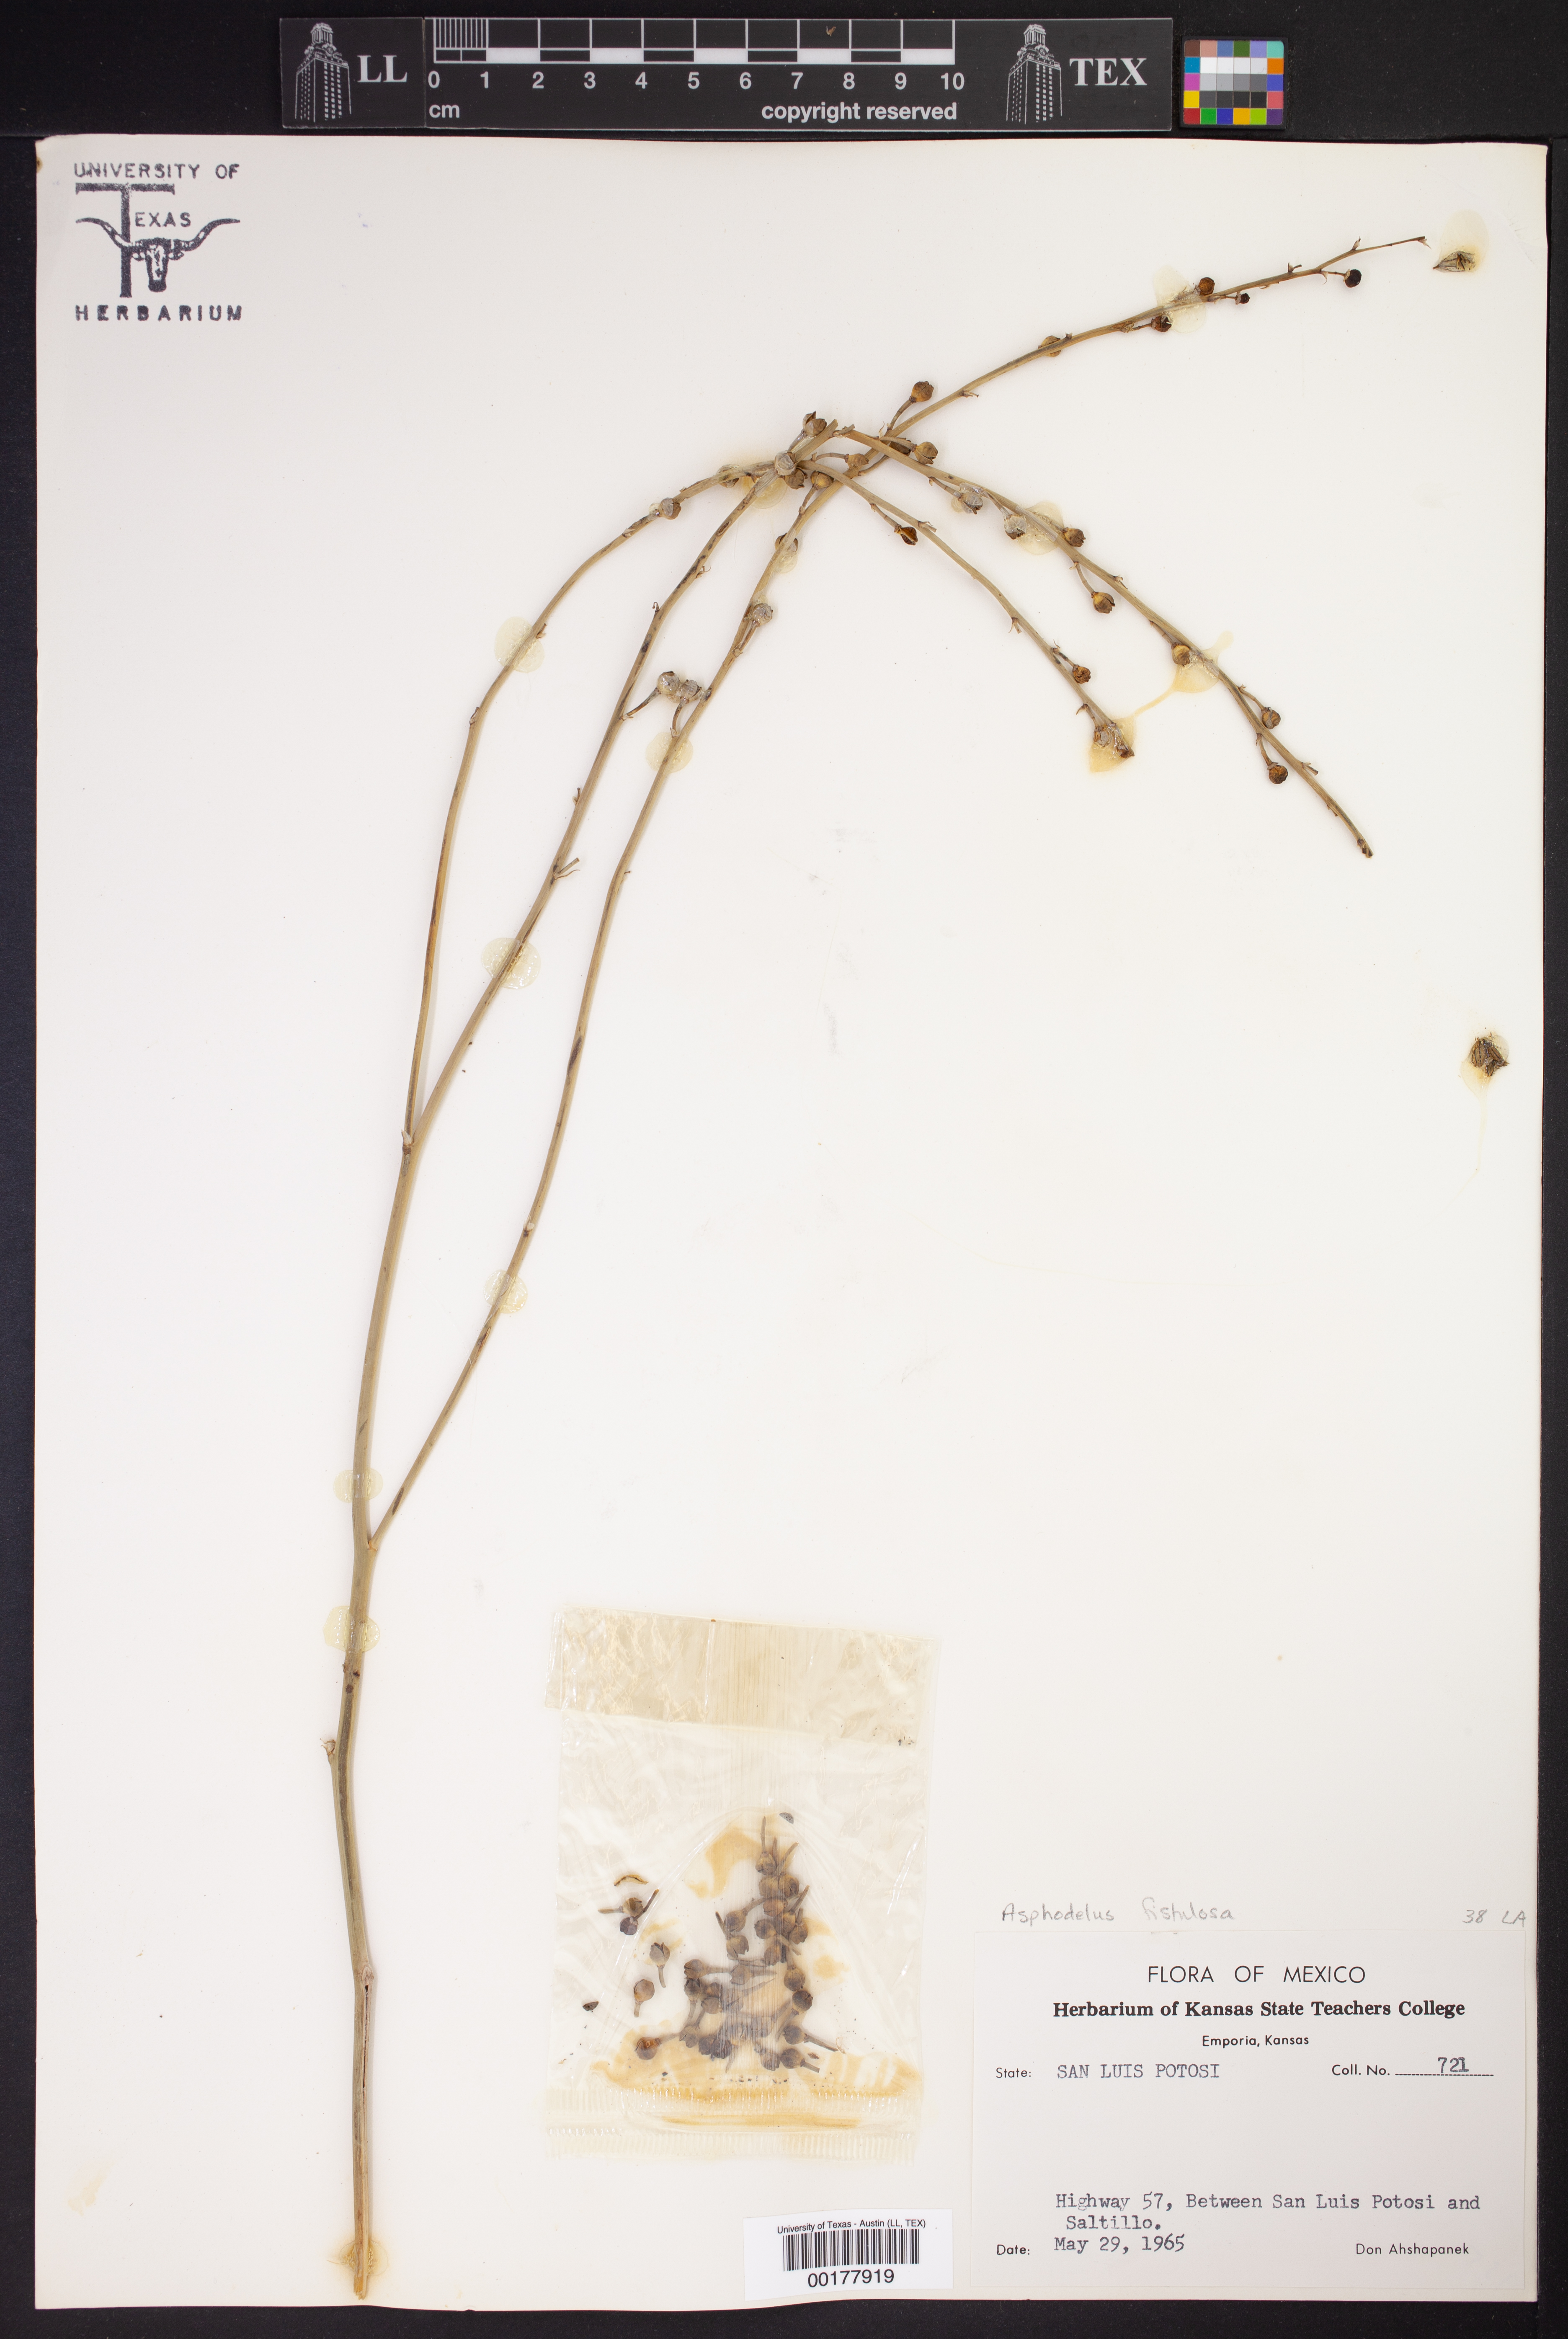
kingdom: Plantae
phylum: Tracheophyta
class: Liliopsida
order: Asparagales
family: Asphodelaceae
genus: Asphodelus
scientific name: Asphodelus fistulosus
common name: Onionweed
